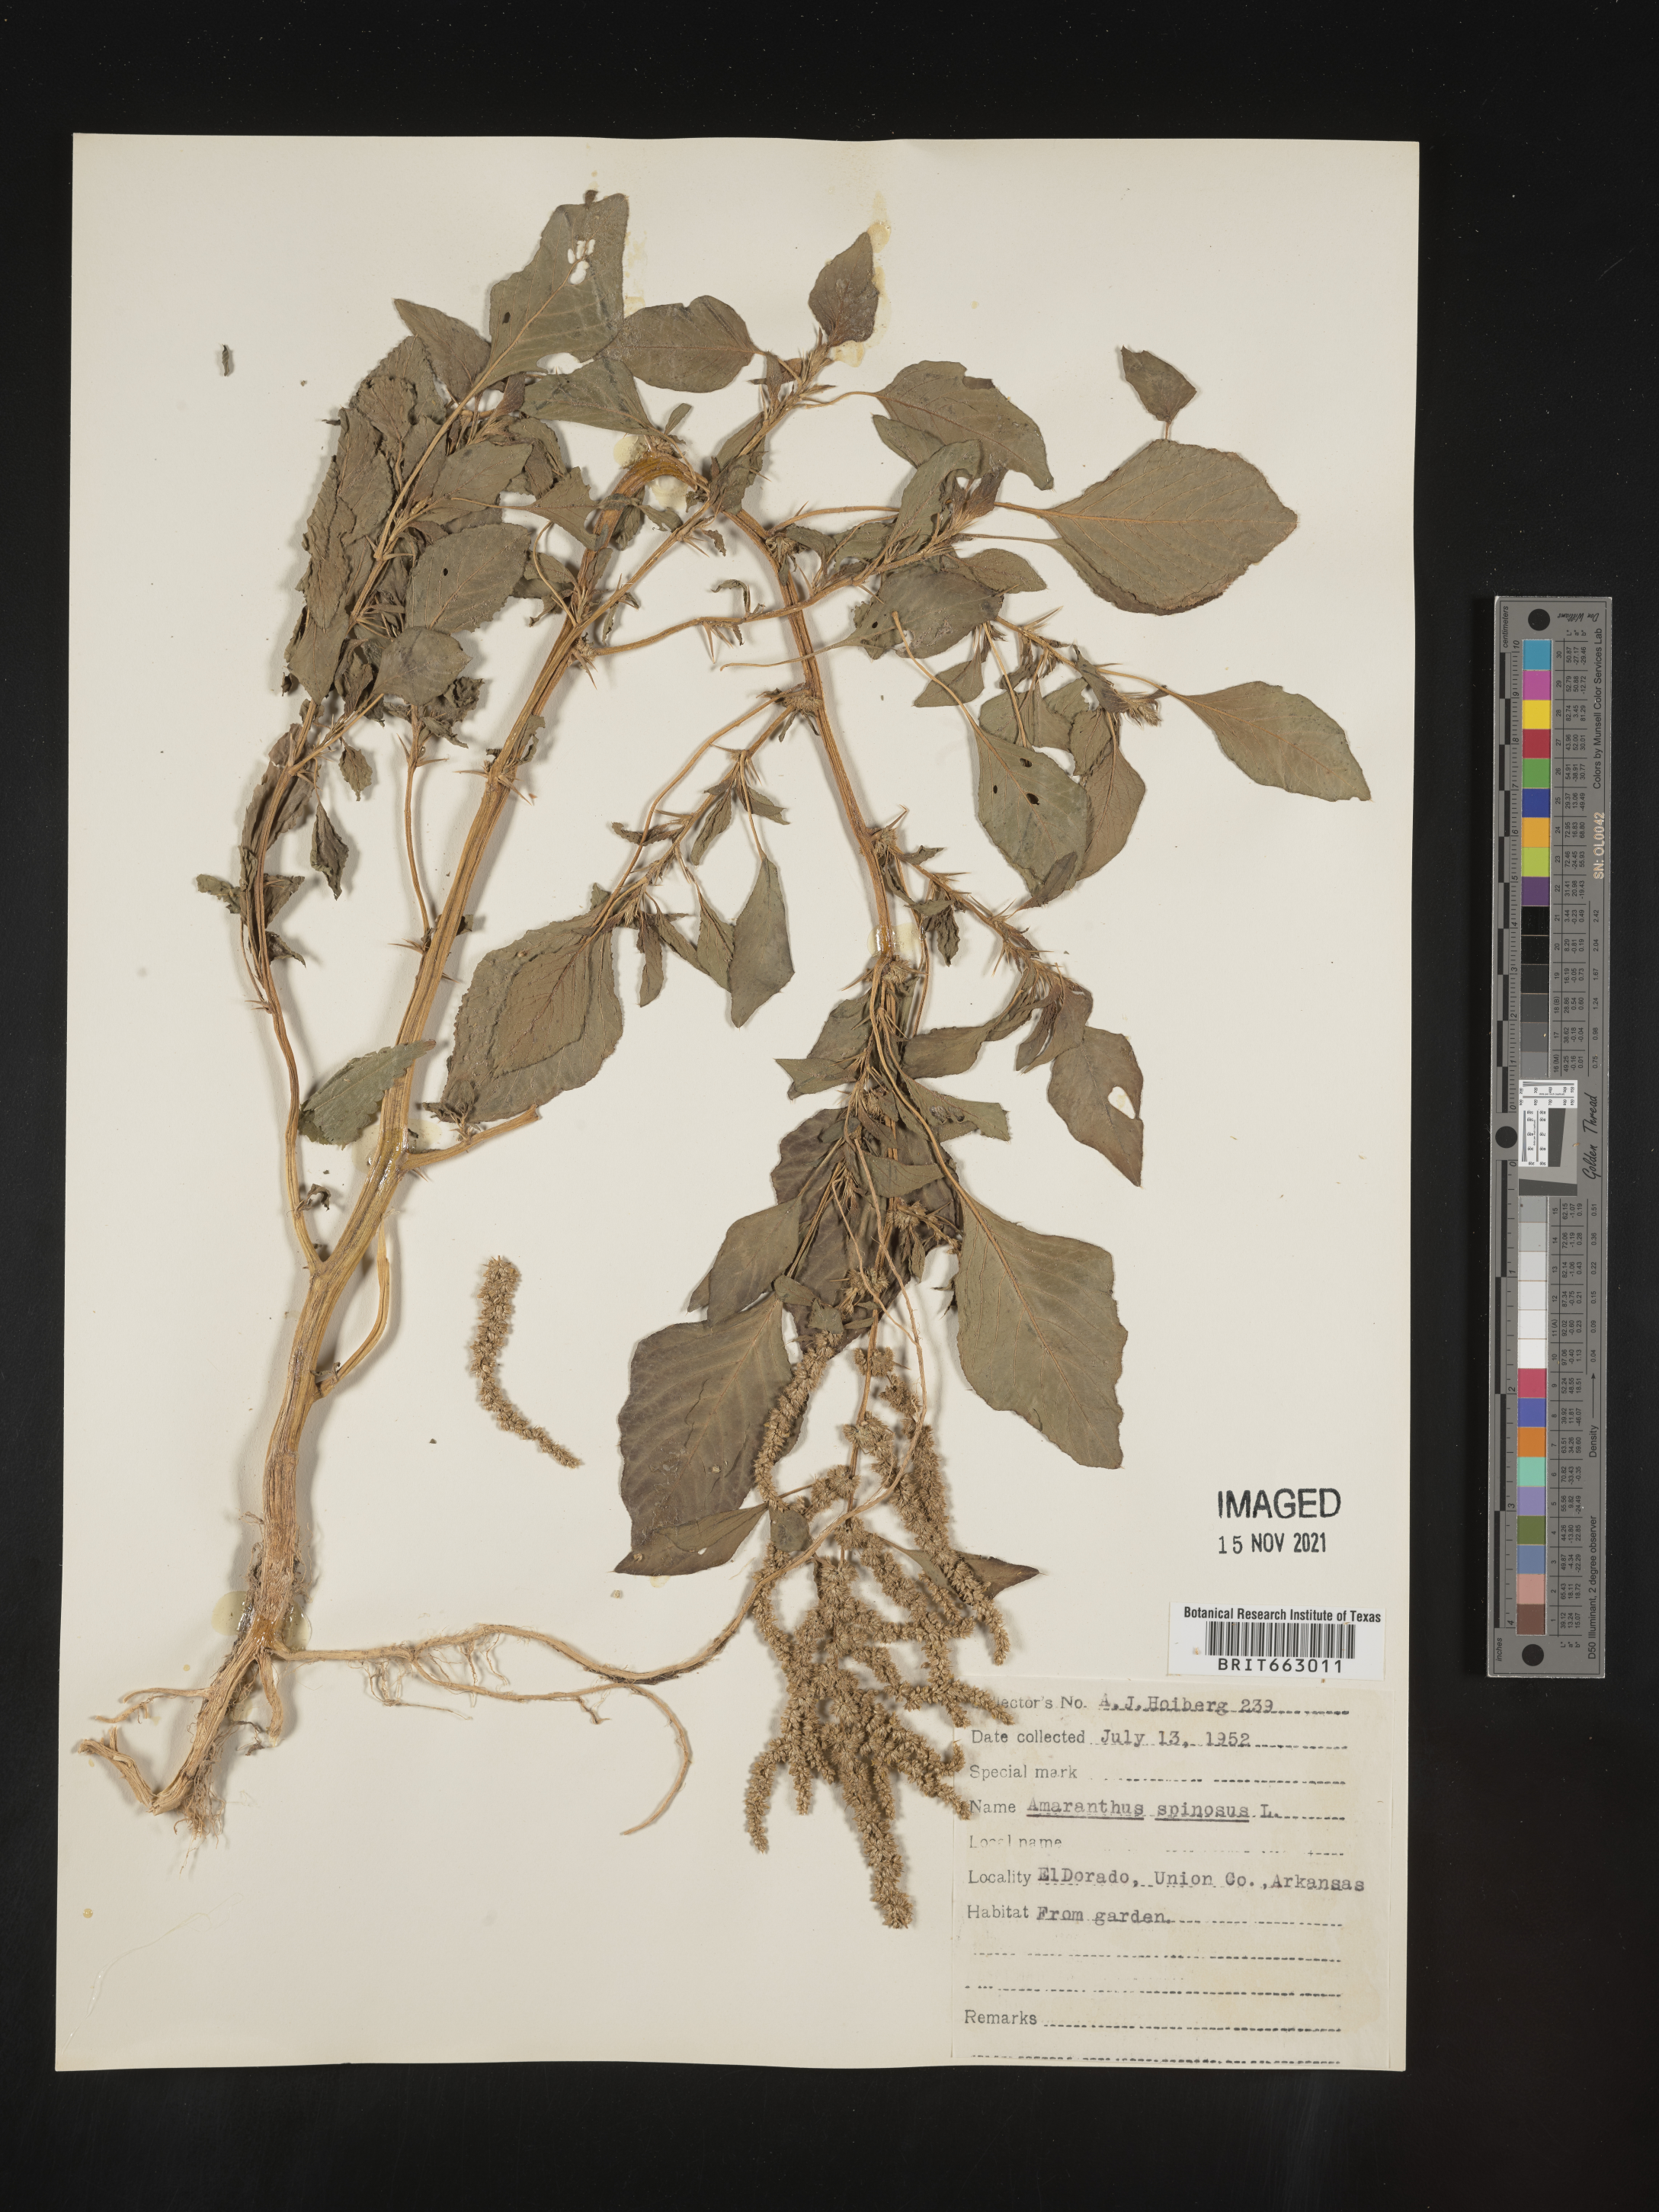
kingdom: Plantae
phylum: Tracheophyta
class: Magnoliopsida
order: Caryophyllales
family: Amaranthaceae
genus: Amaranthus
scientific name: Amaranthus spinosus
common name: Spiny amaranth
